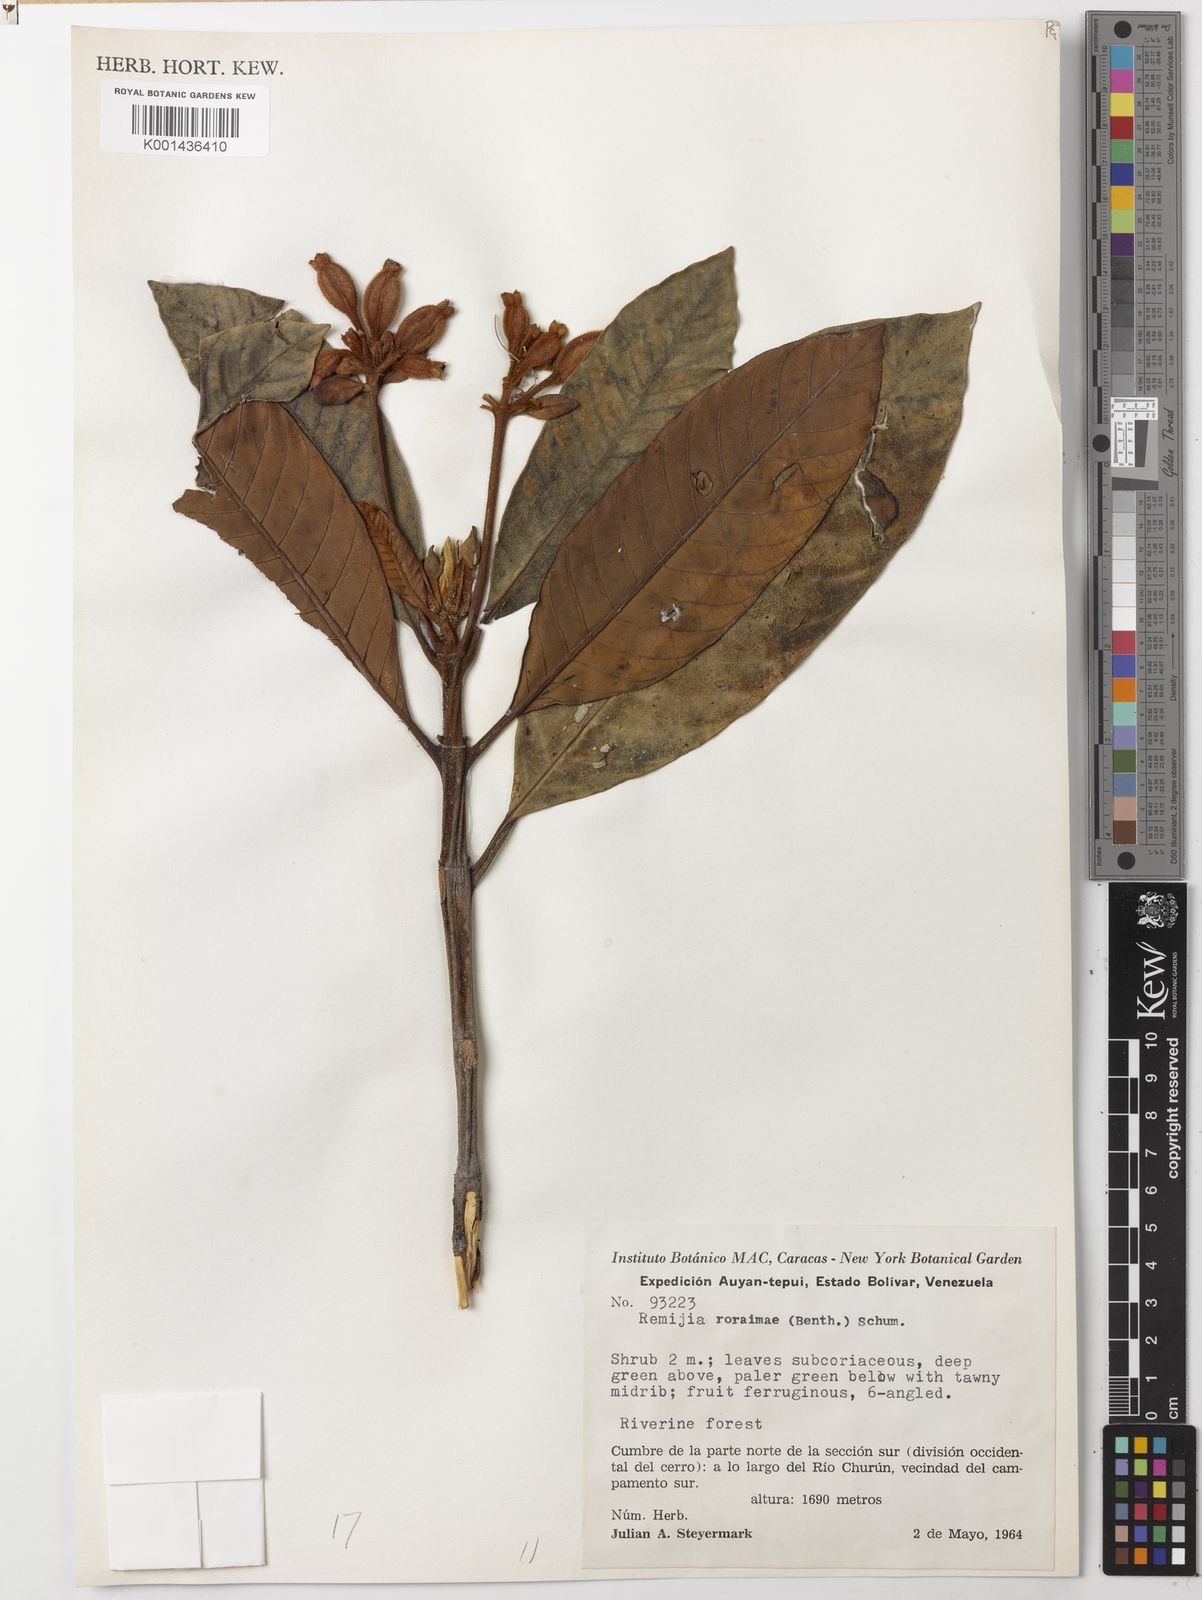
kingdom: Plantae
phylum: Tracheophyta
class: Magnoliopsida
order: Gentianales
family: Rubiaceae
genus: Remijia
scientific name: Remijia roraimae
